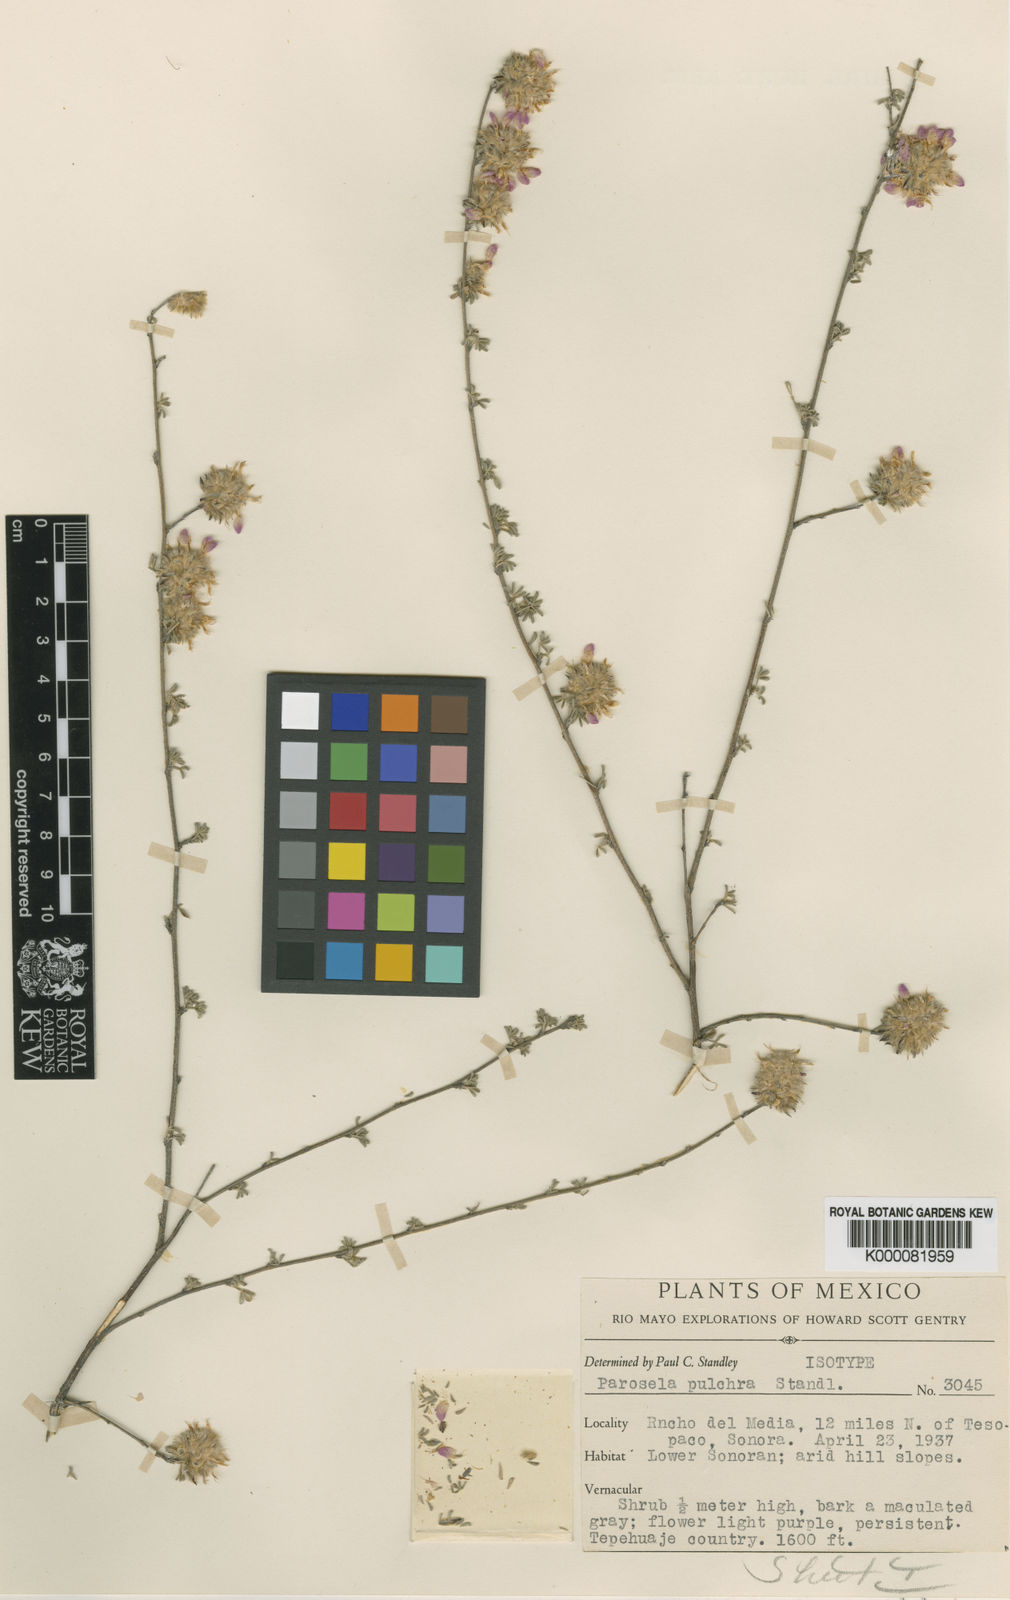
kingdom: Plantae
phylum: Tracheophyta
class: Magnoliopsida
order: Fabales
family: Fabaceae
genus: Dalea
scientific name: Dalea
